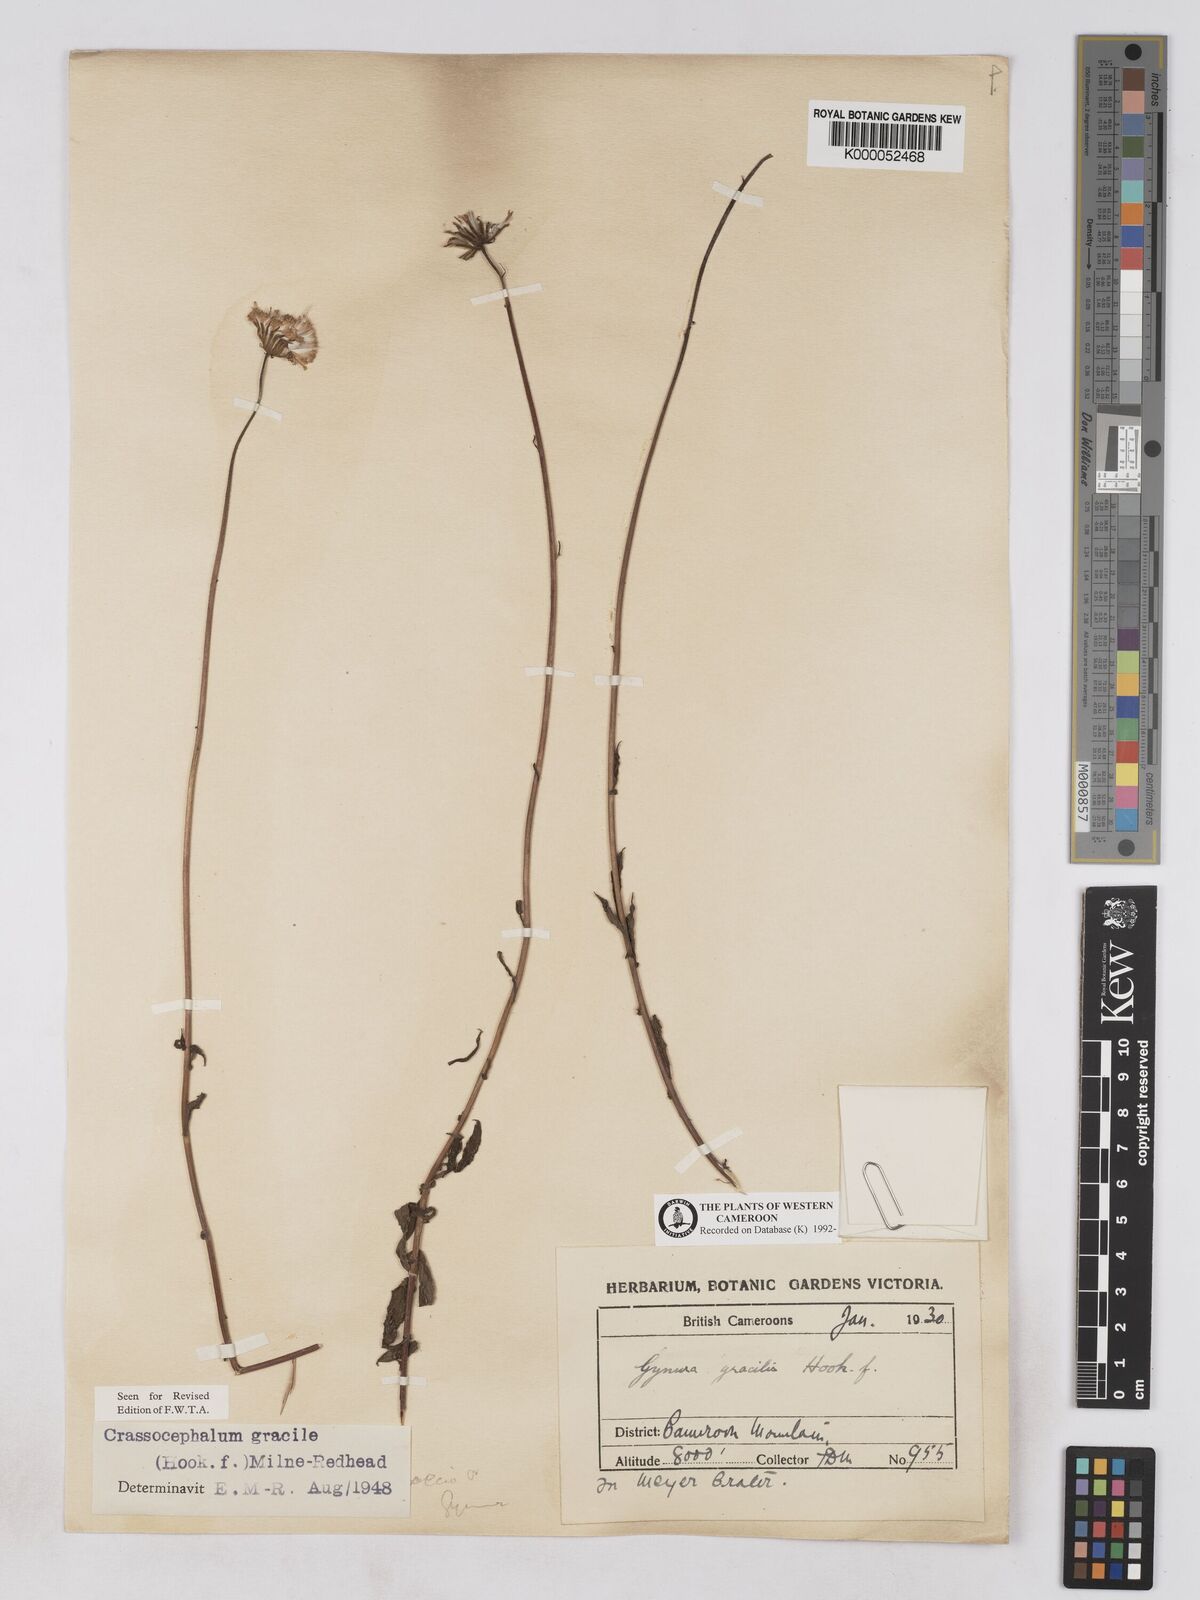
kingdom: Plantae
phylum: Tracheophyta
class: Magnoliopsida
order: Asterales
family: Asteraceae
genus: Crassocephalum
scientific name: Crassocephalum
